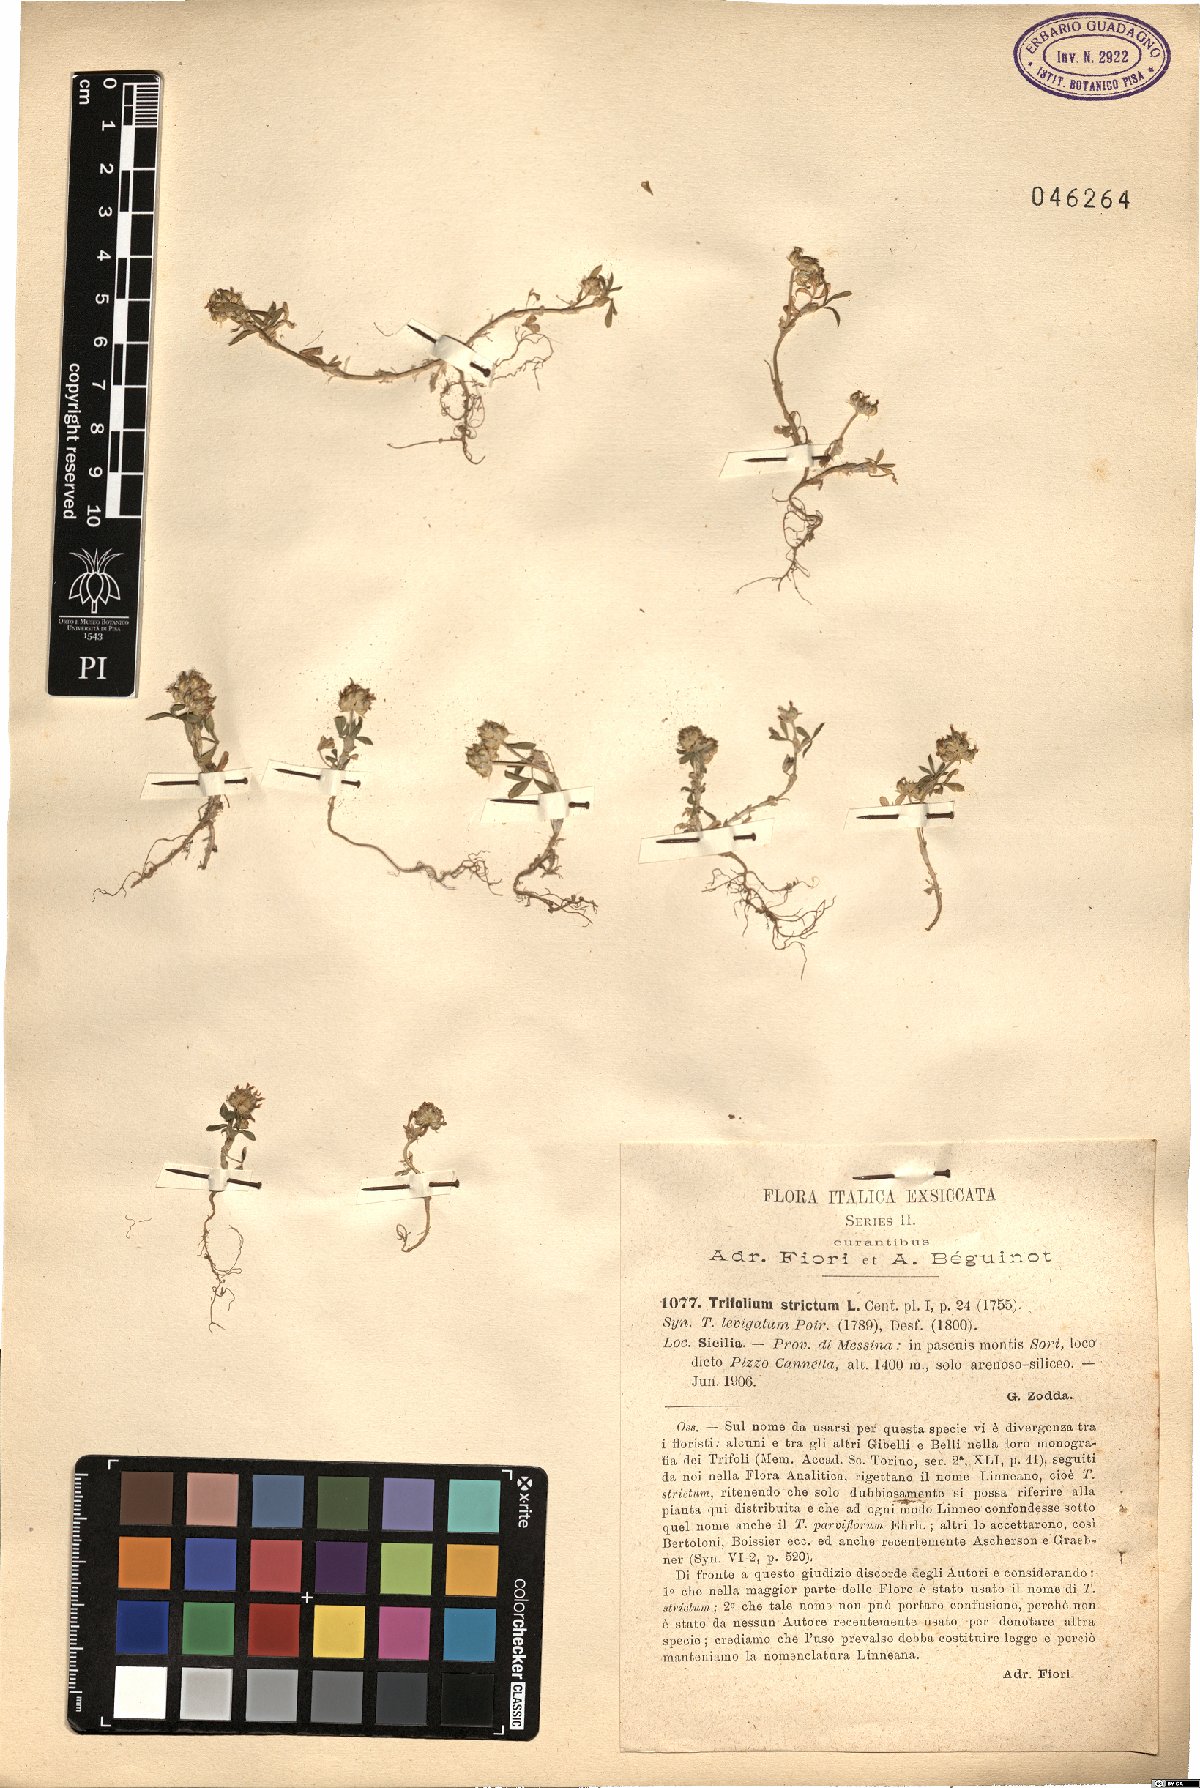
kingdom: Plantae
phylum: Tracheophyta
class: Magnoliopsida
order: Fabales
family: Fabaceae
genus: Trifolium
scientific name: Trifolium strictum
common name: Upright clover
